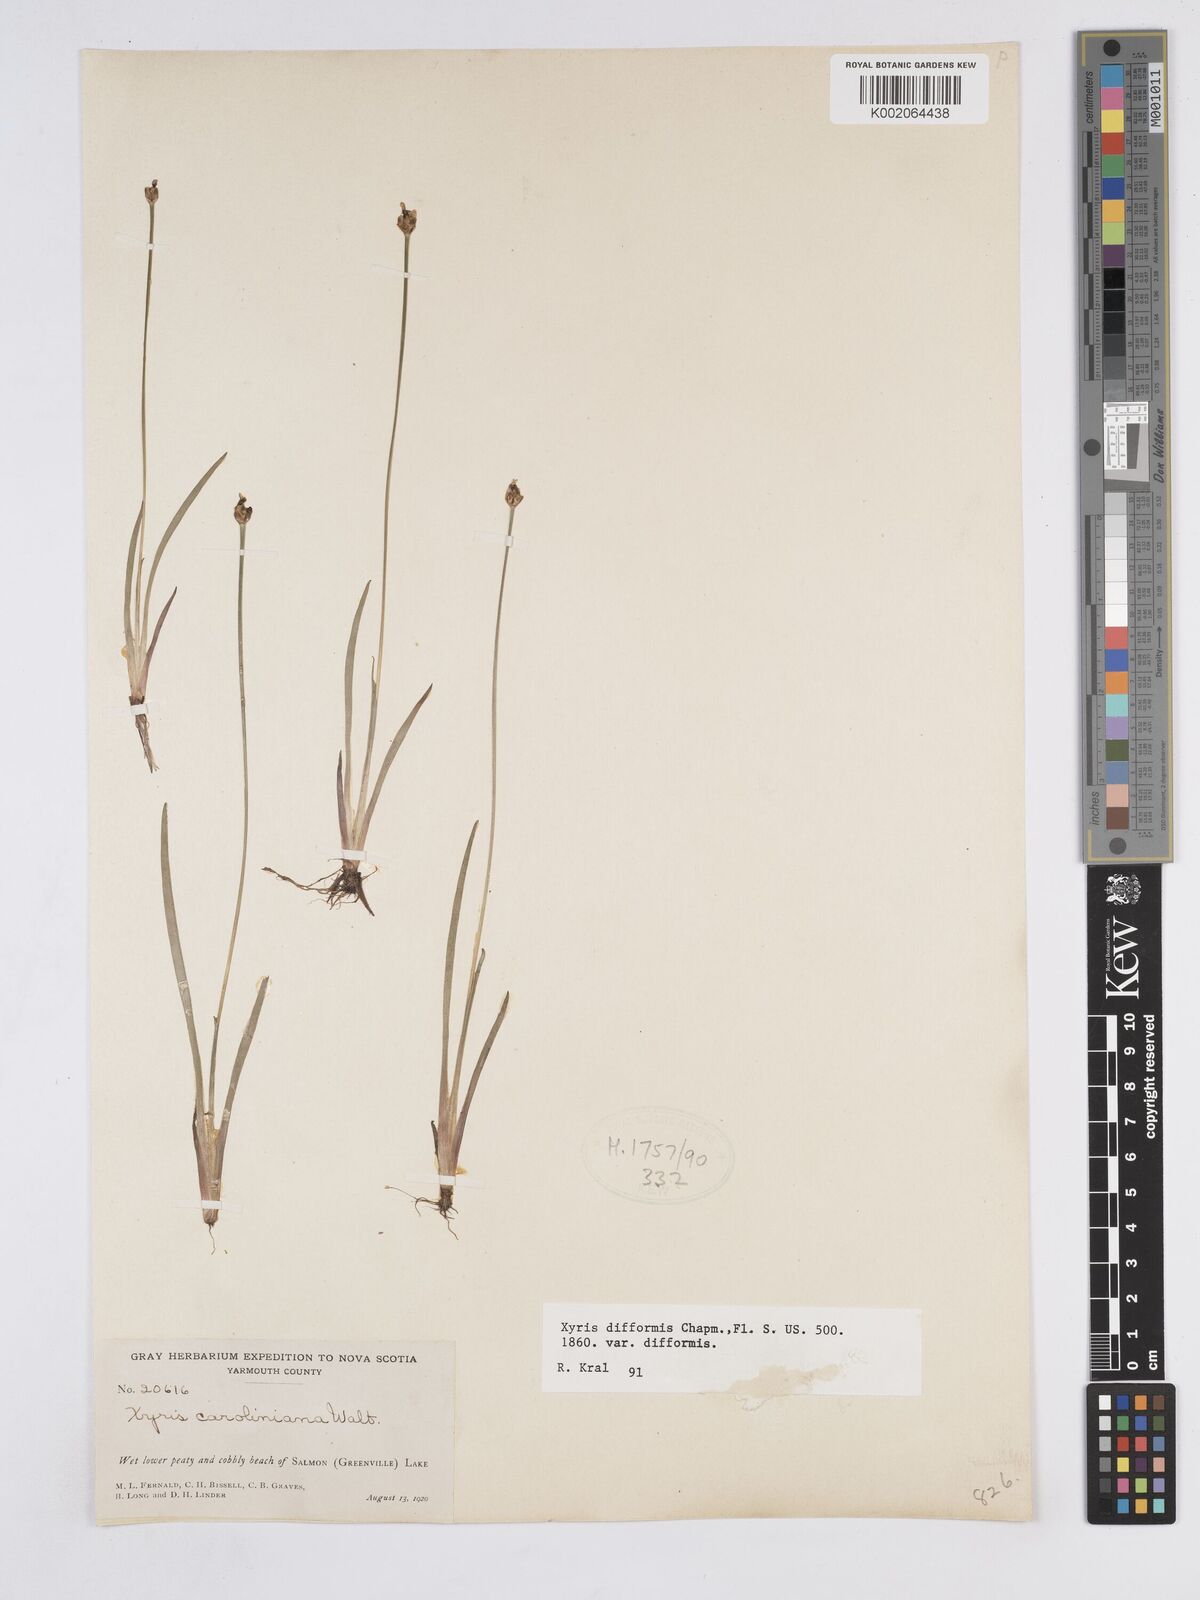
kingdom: Plantae
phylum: Tracheophyta
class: Liliopsida
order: Poales
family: Xyridaceae
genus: Xyris
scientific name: Xyris difformis
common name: Bog yellow-eyed-grass
